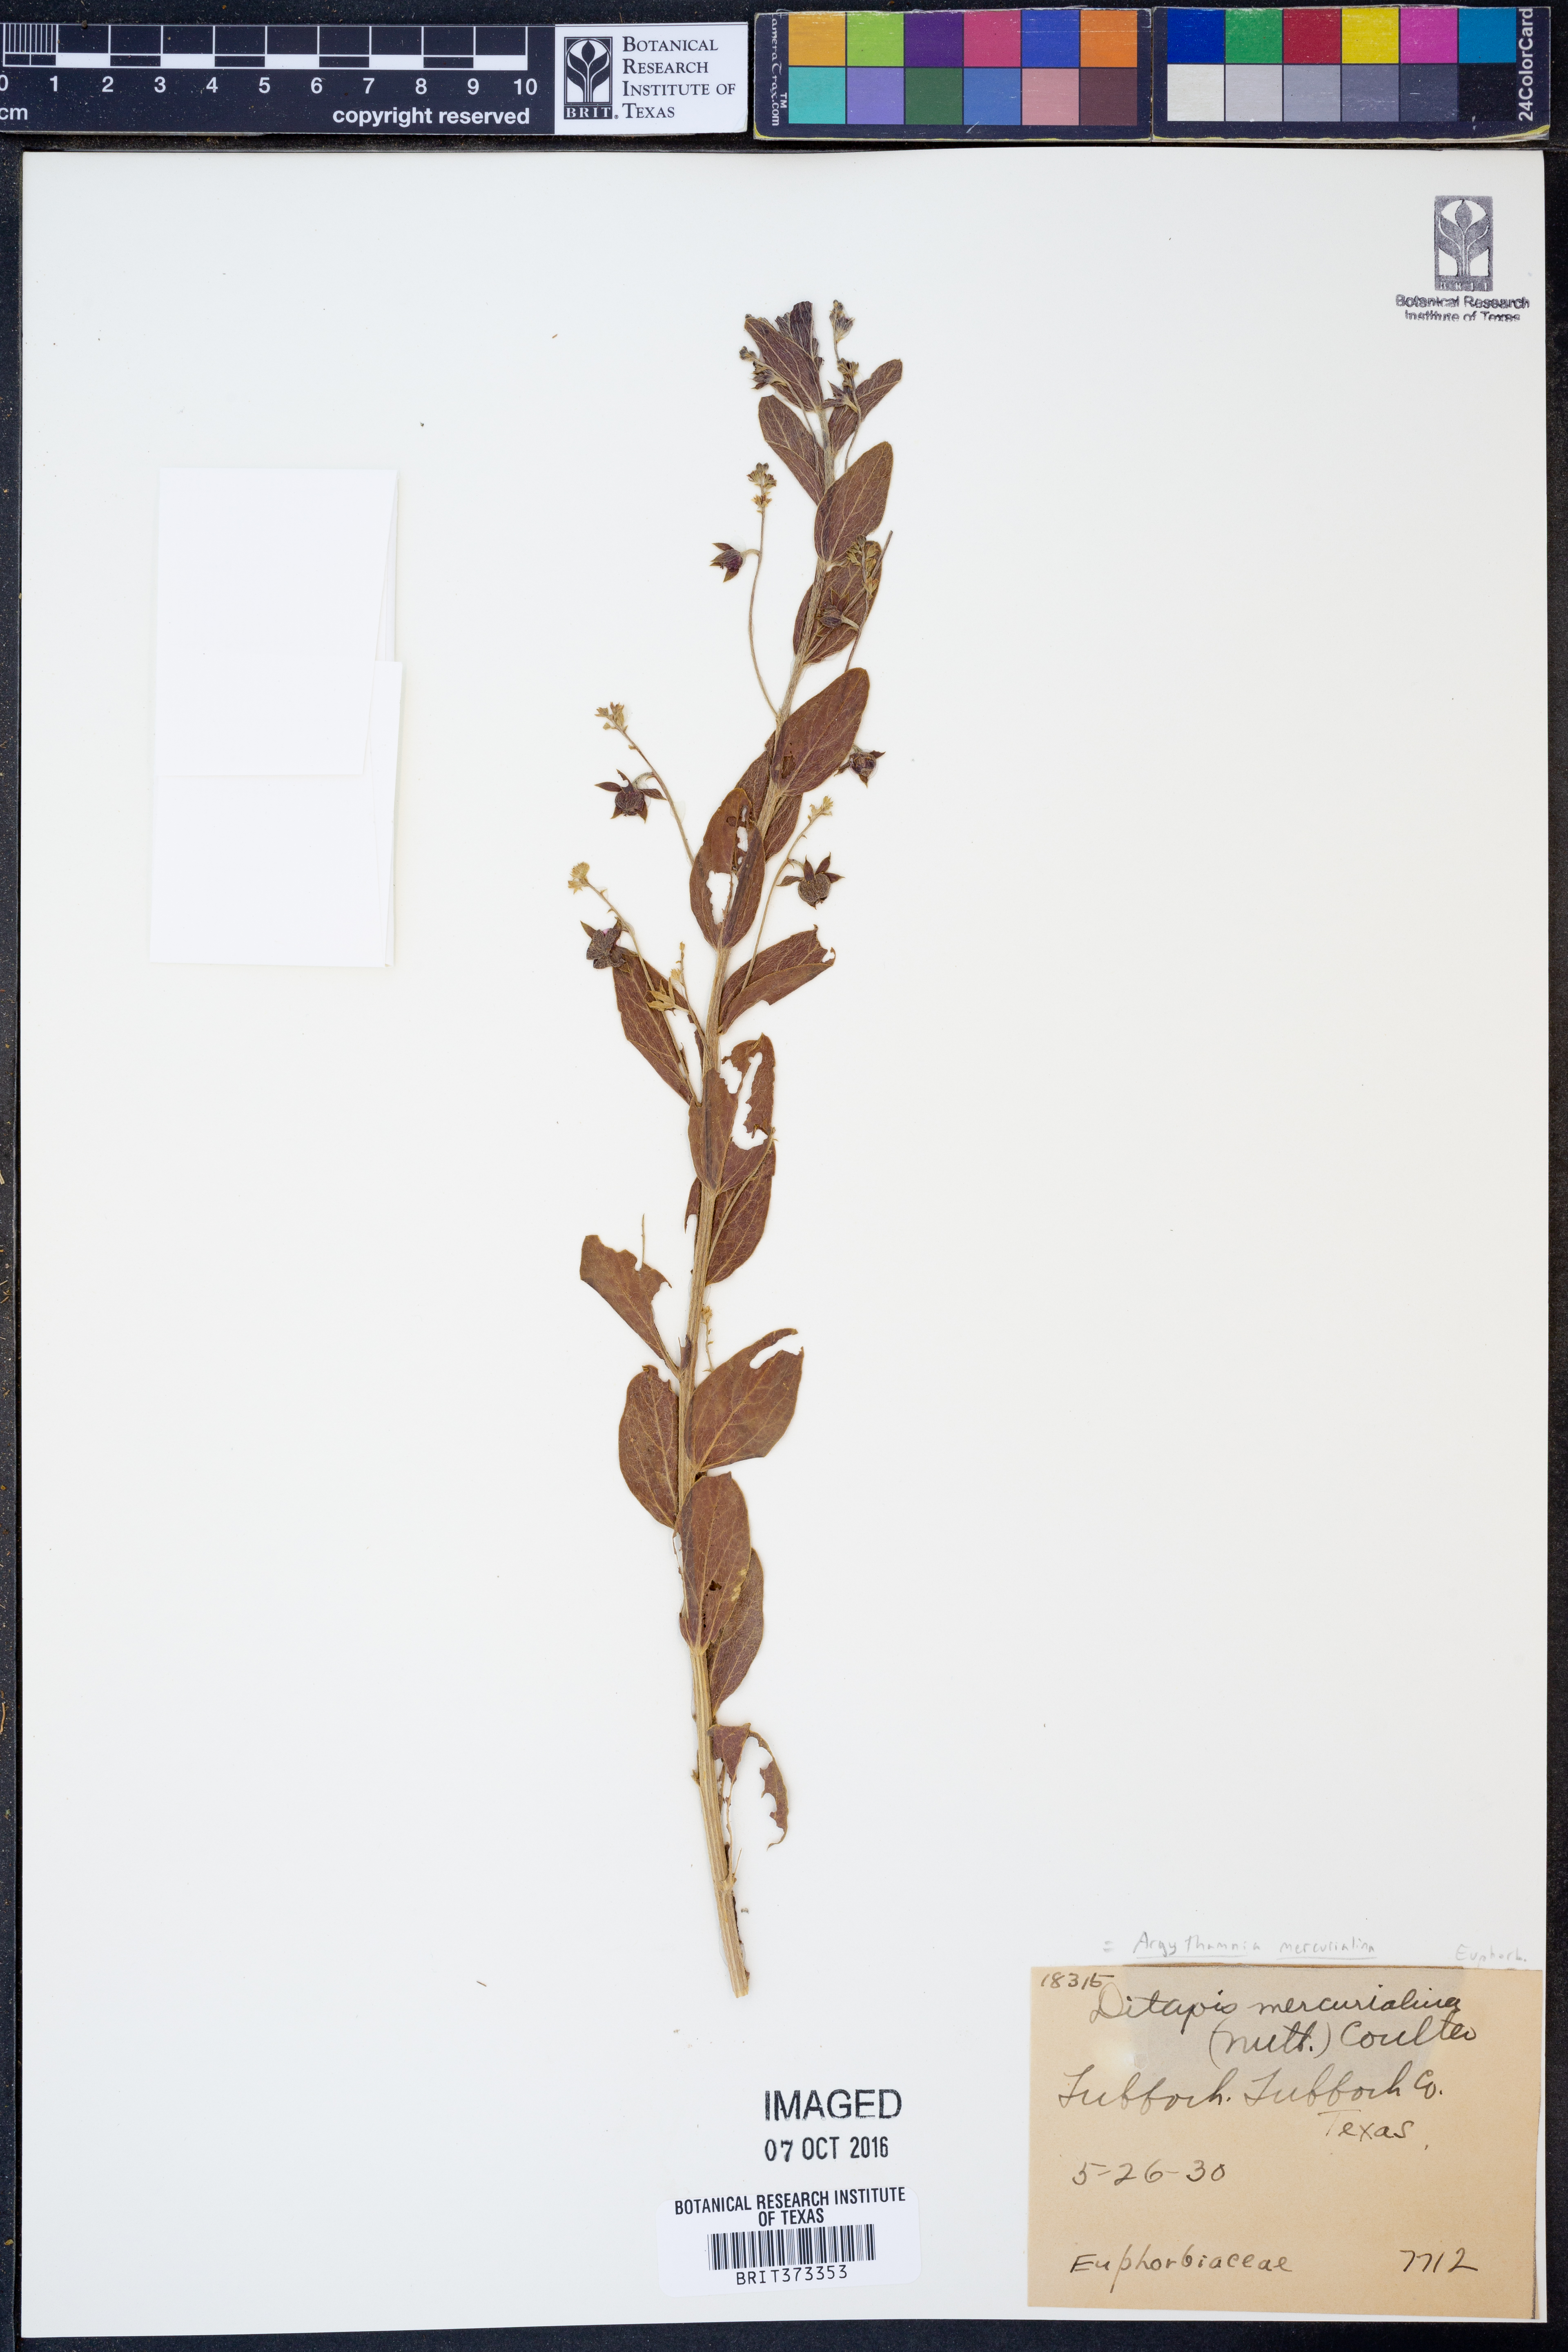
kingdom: Plantae
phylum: Tracheophyta
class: Magnoliopsida
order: Malpighiales
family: Euphorbiaceae
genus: Ditaxis
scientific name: Ditaxis mercurialina
